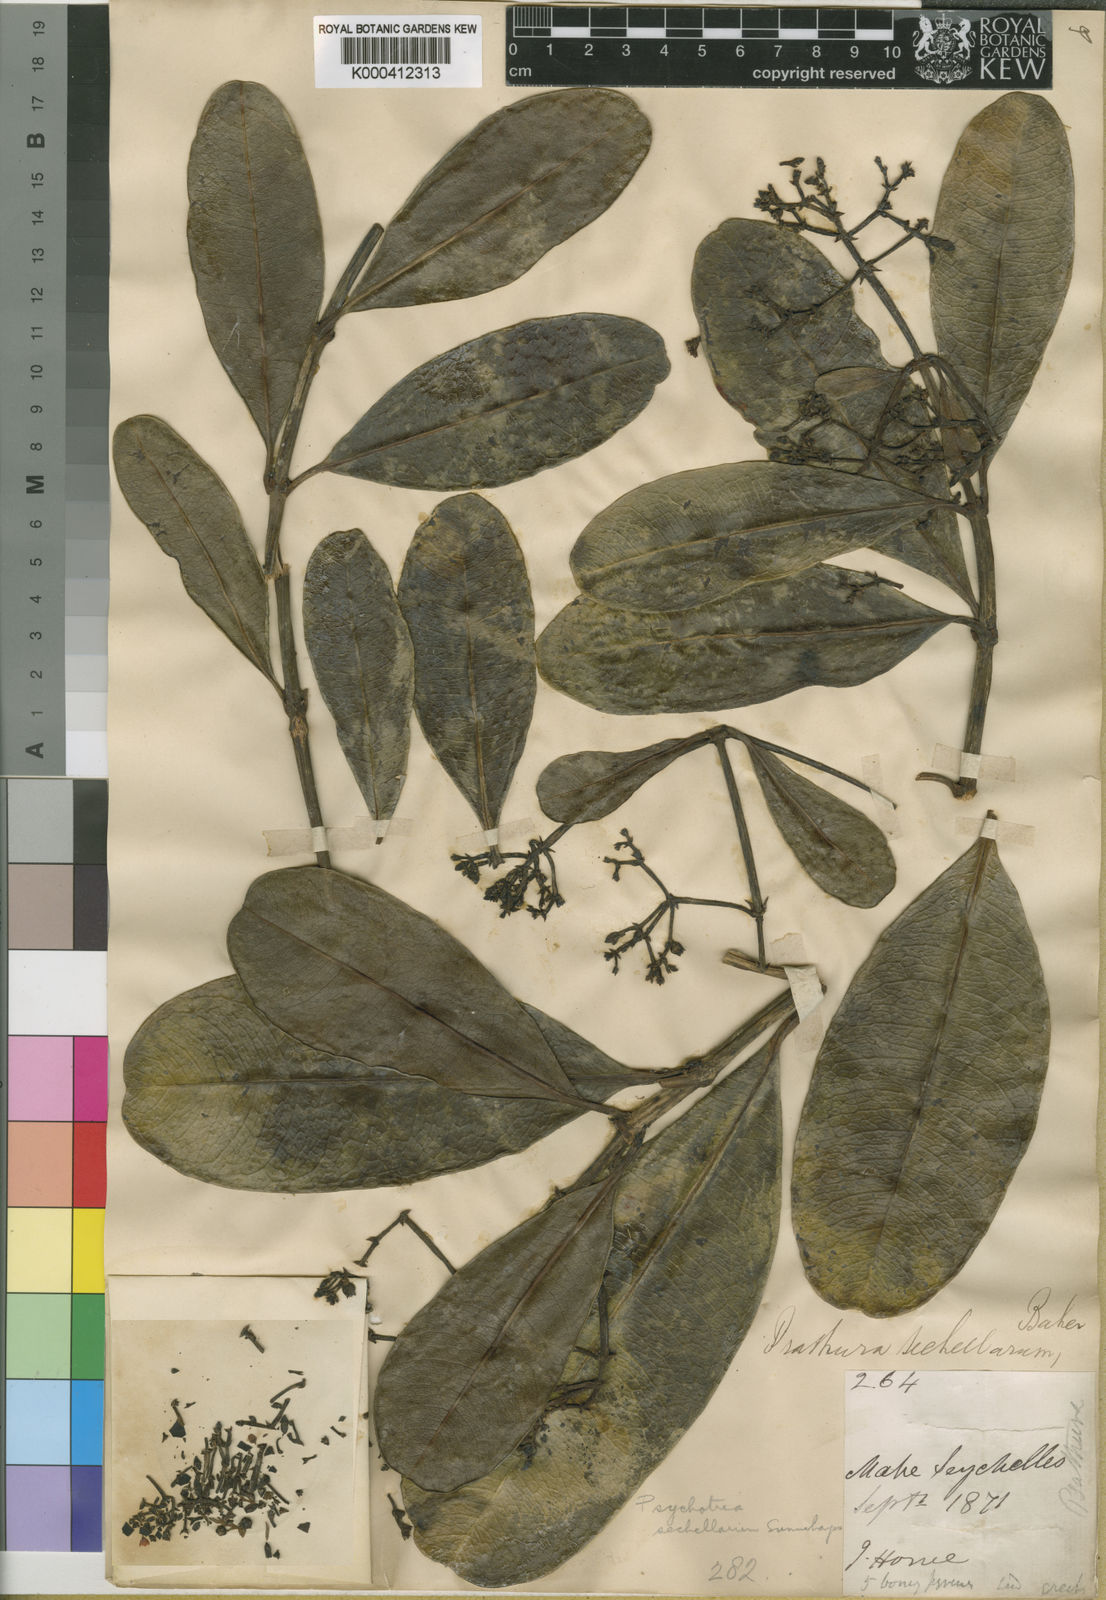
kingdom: Plantae
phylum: Tracheophyta
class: Magnoliopsida
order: Gentianales
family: Rubiaceae
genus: Seychellea
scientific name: Seychellea sechellarum
